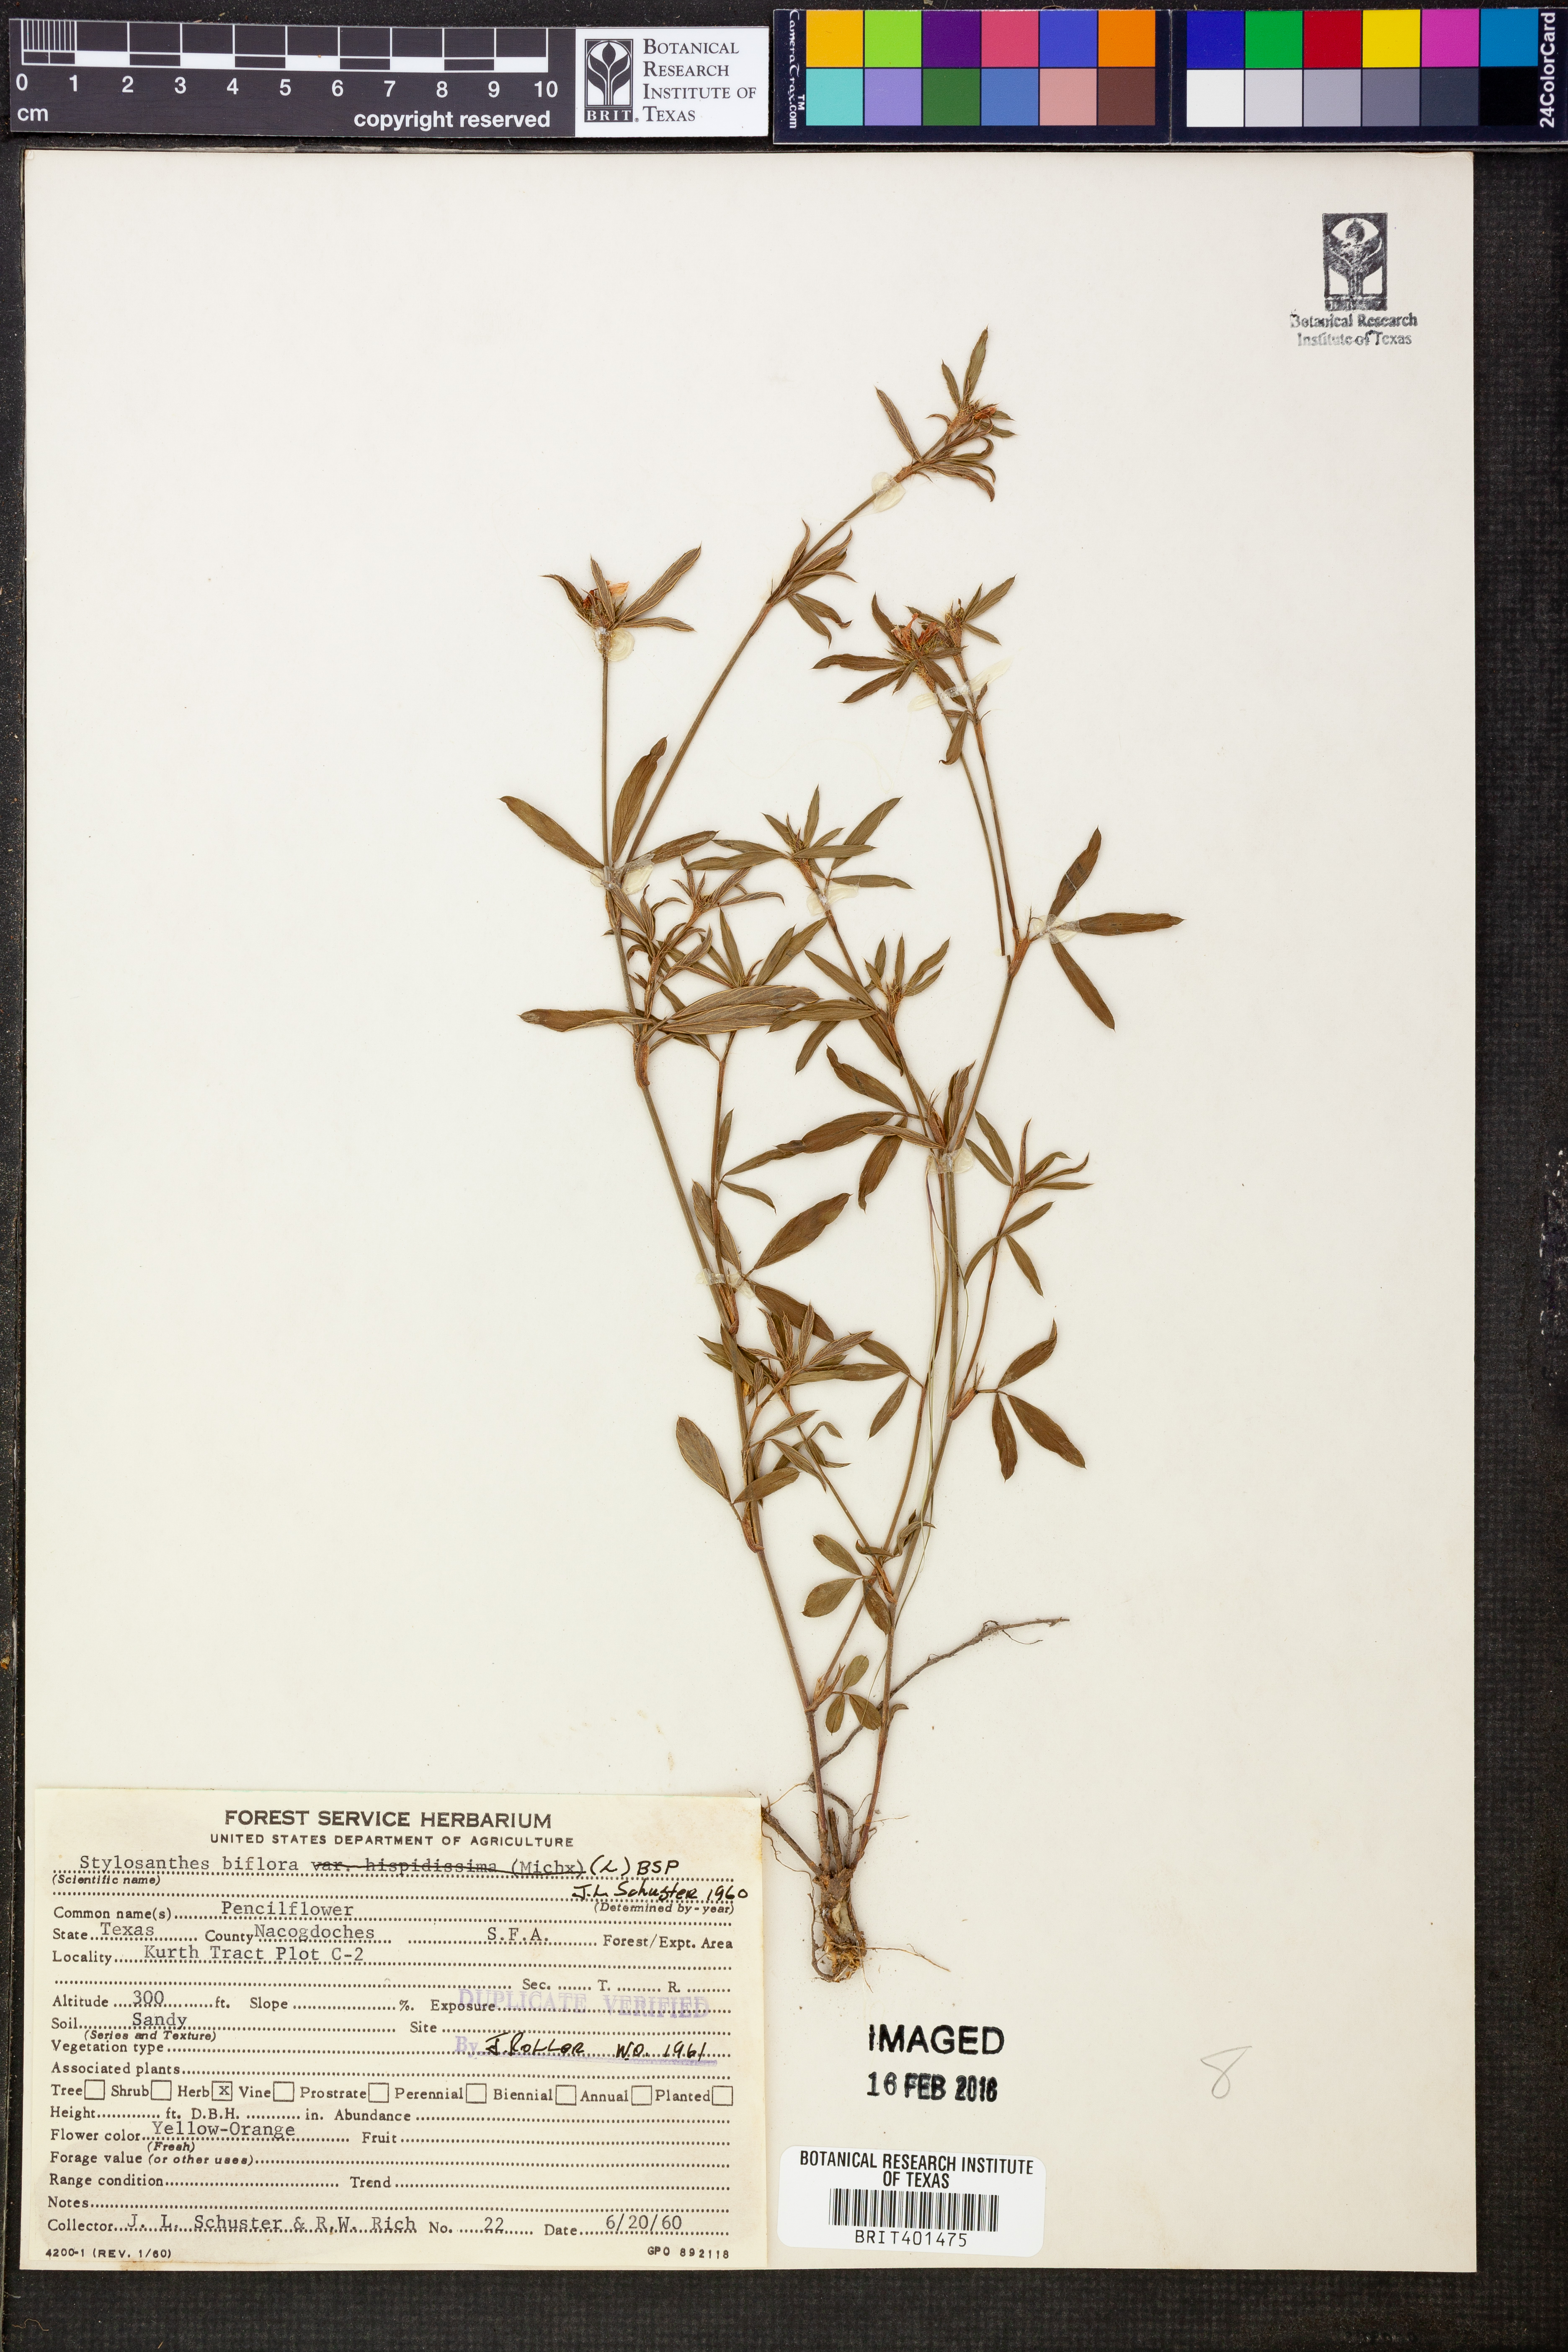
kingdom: Plantae
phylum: Tracheophyta
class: Magnoliopsida
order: Fabales
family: Fabaceae
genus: Stylosanthes
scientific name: Stylosanthes biflora
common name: Two-flower pencil-flower
